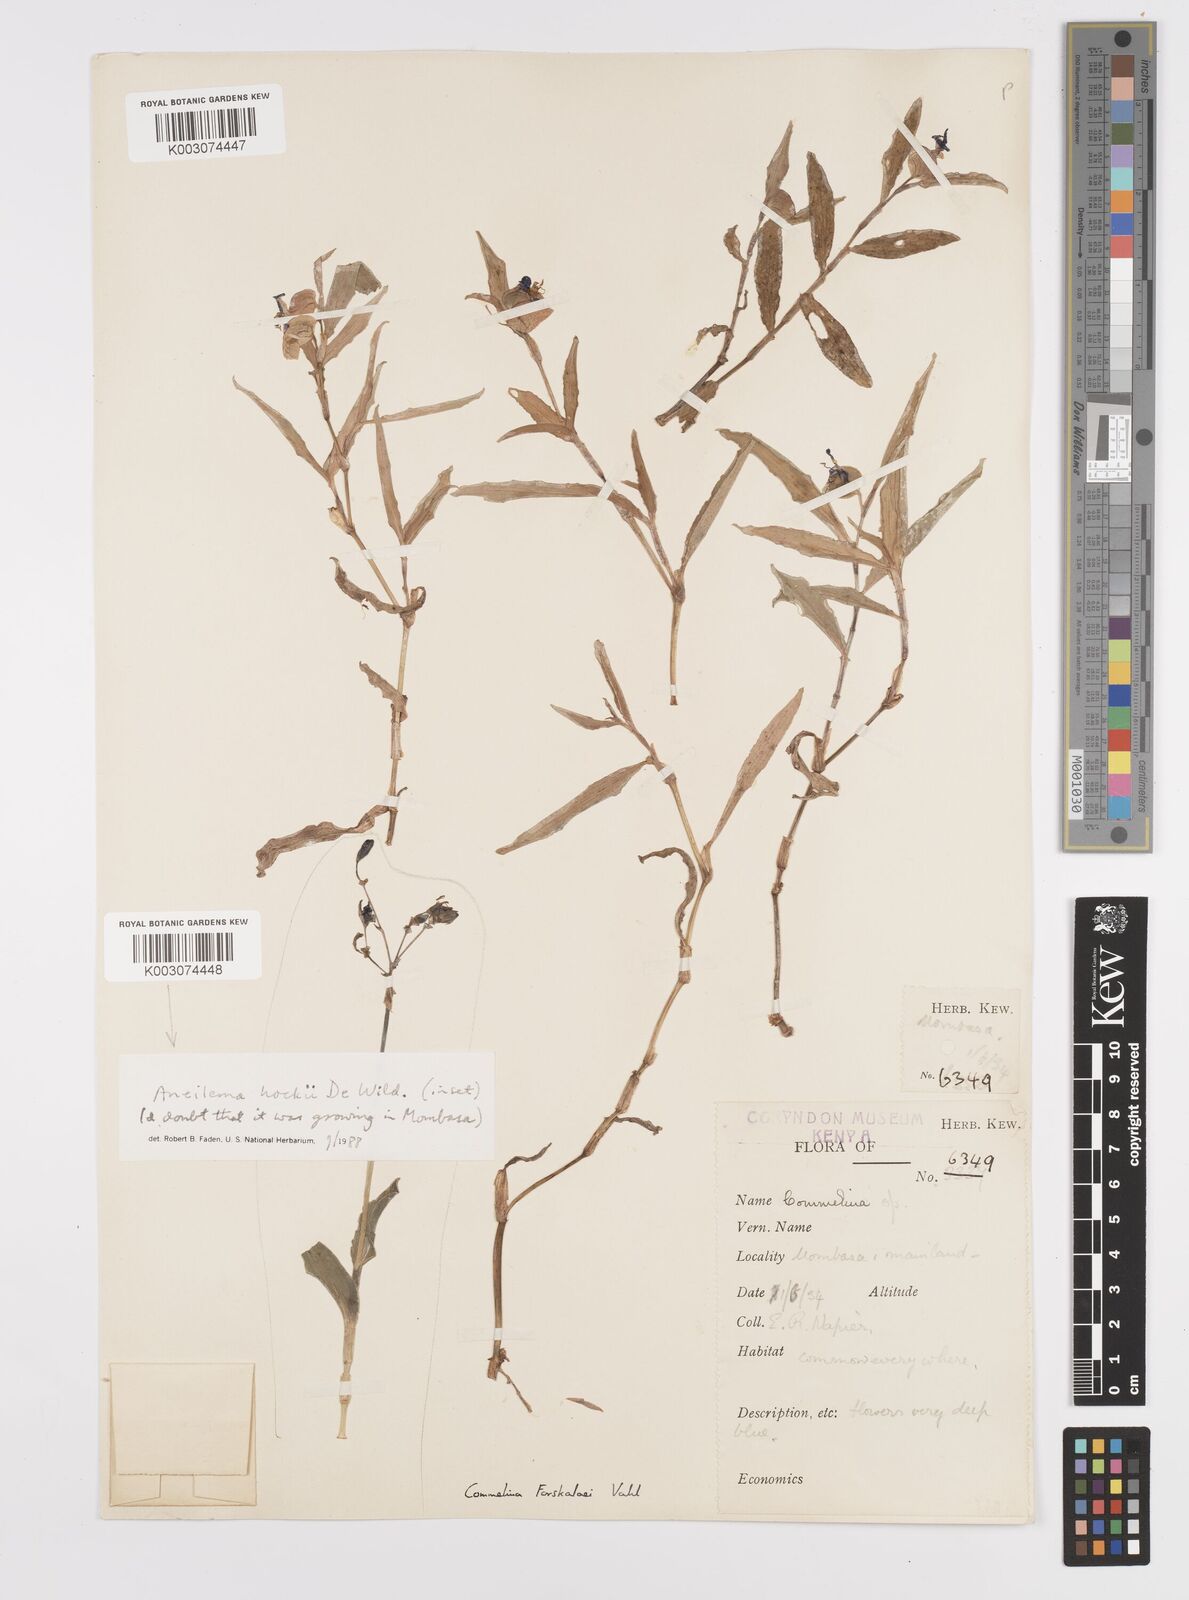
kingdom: Plantae
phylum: Tracheophyta
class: Liliopsida
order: Commelinales
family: Commelinaceae
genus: Commelina
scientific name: Commelina
